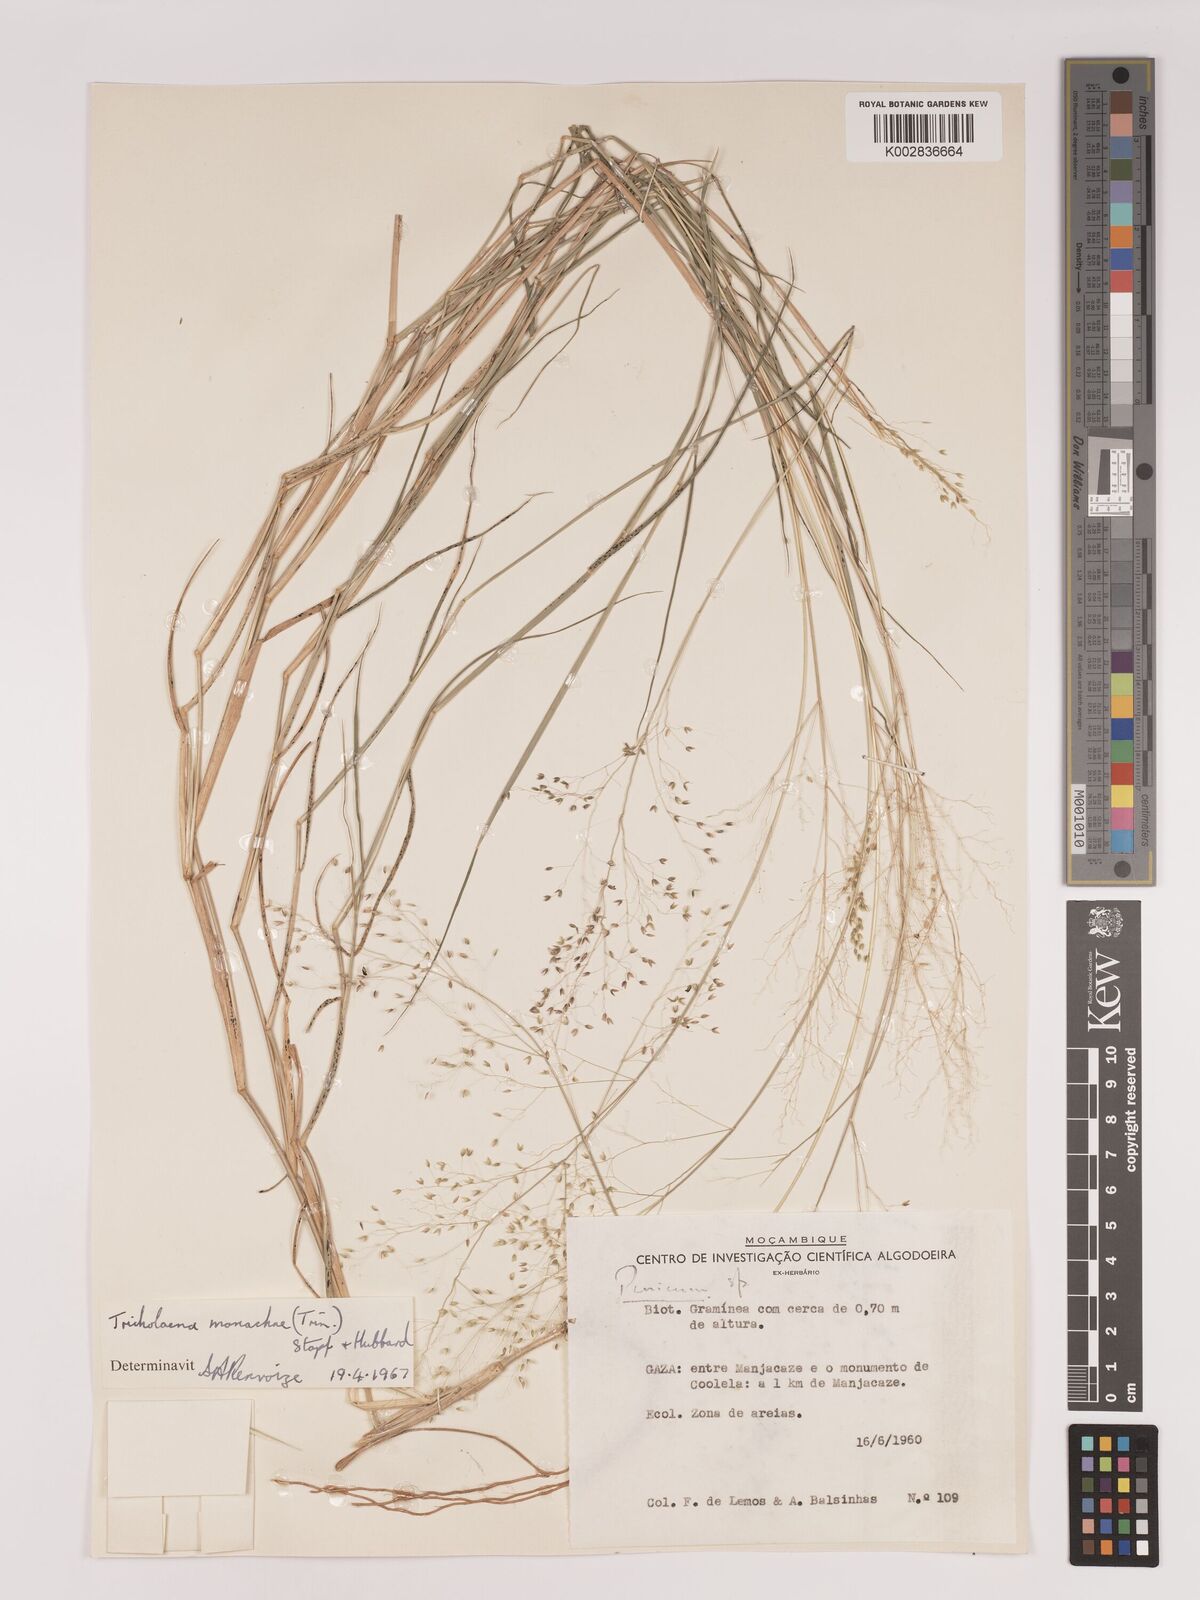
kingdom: Plantae
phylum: Tracheophyta
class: Liliopsida
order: Poales
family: Poaceae
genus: Tricholaena
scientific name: Tricholaena monachne
